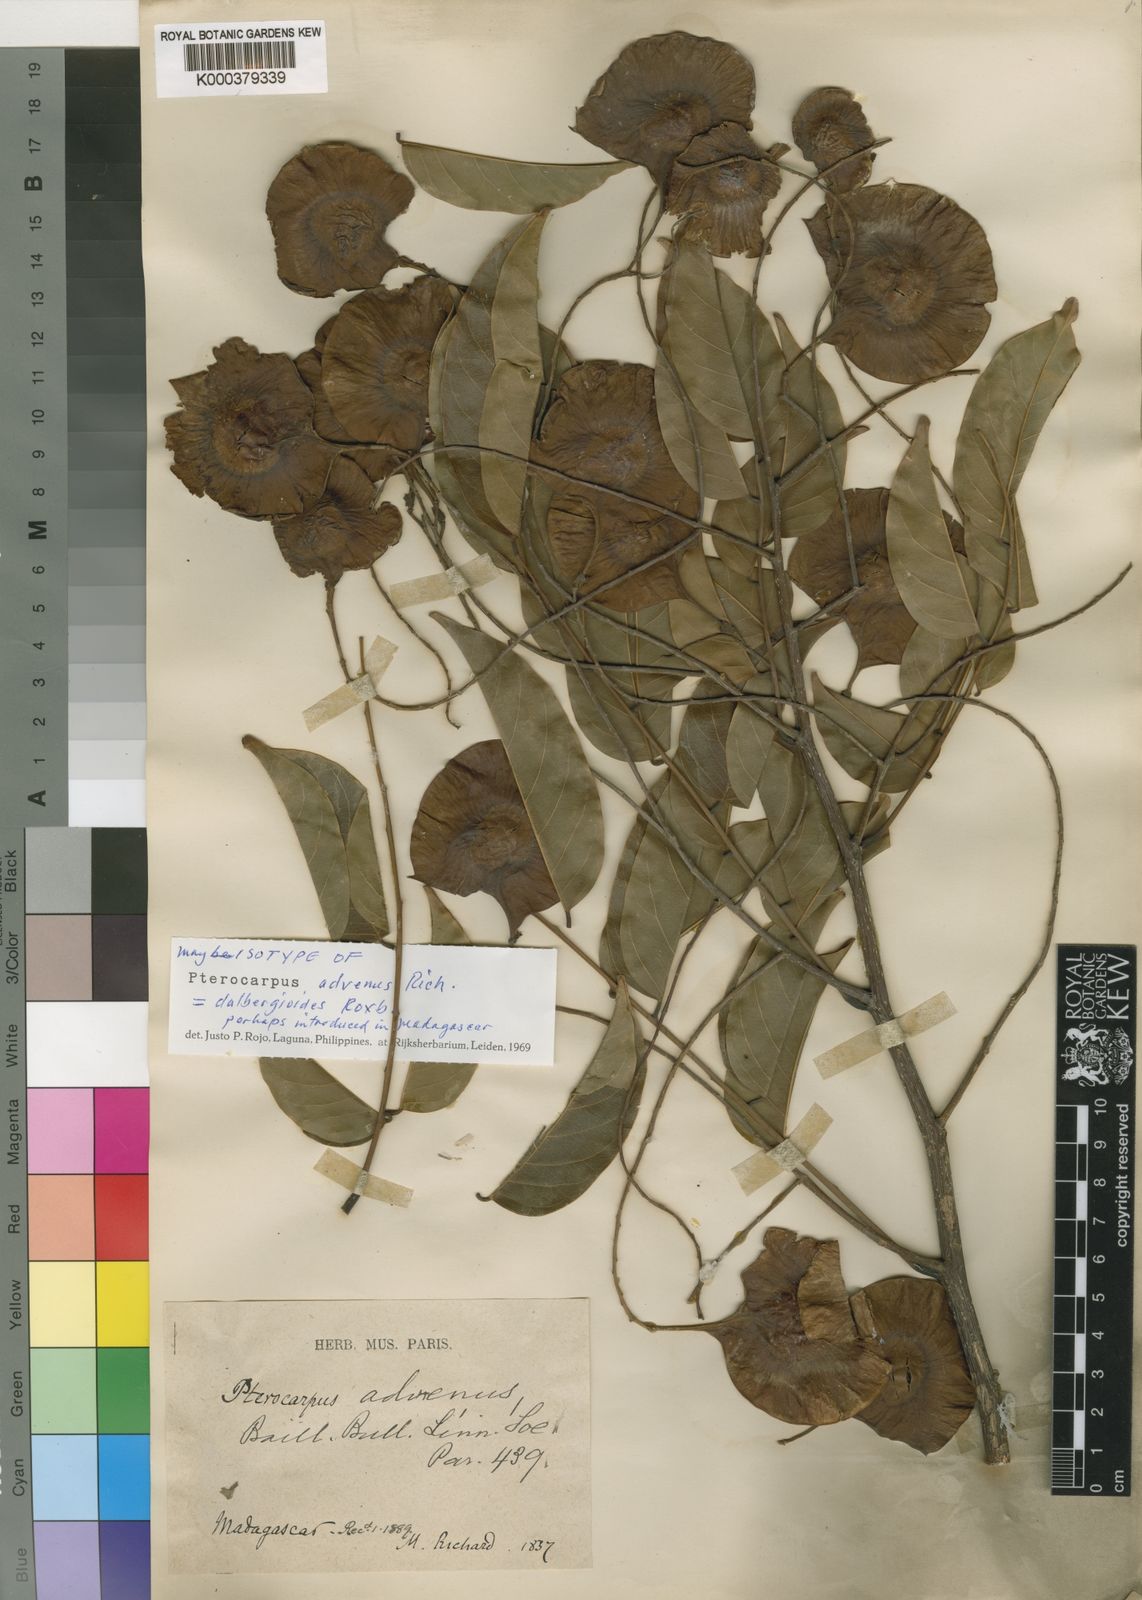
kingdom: Plantae
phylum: Tracheophyta
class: Magnoliopsida
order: Fabales
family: Fabaceae
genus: Pterocarpus
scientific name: Pterocarpus
